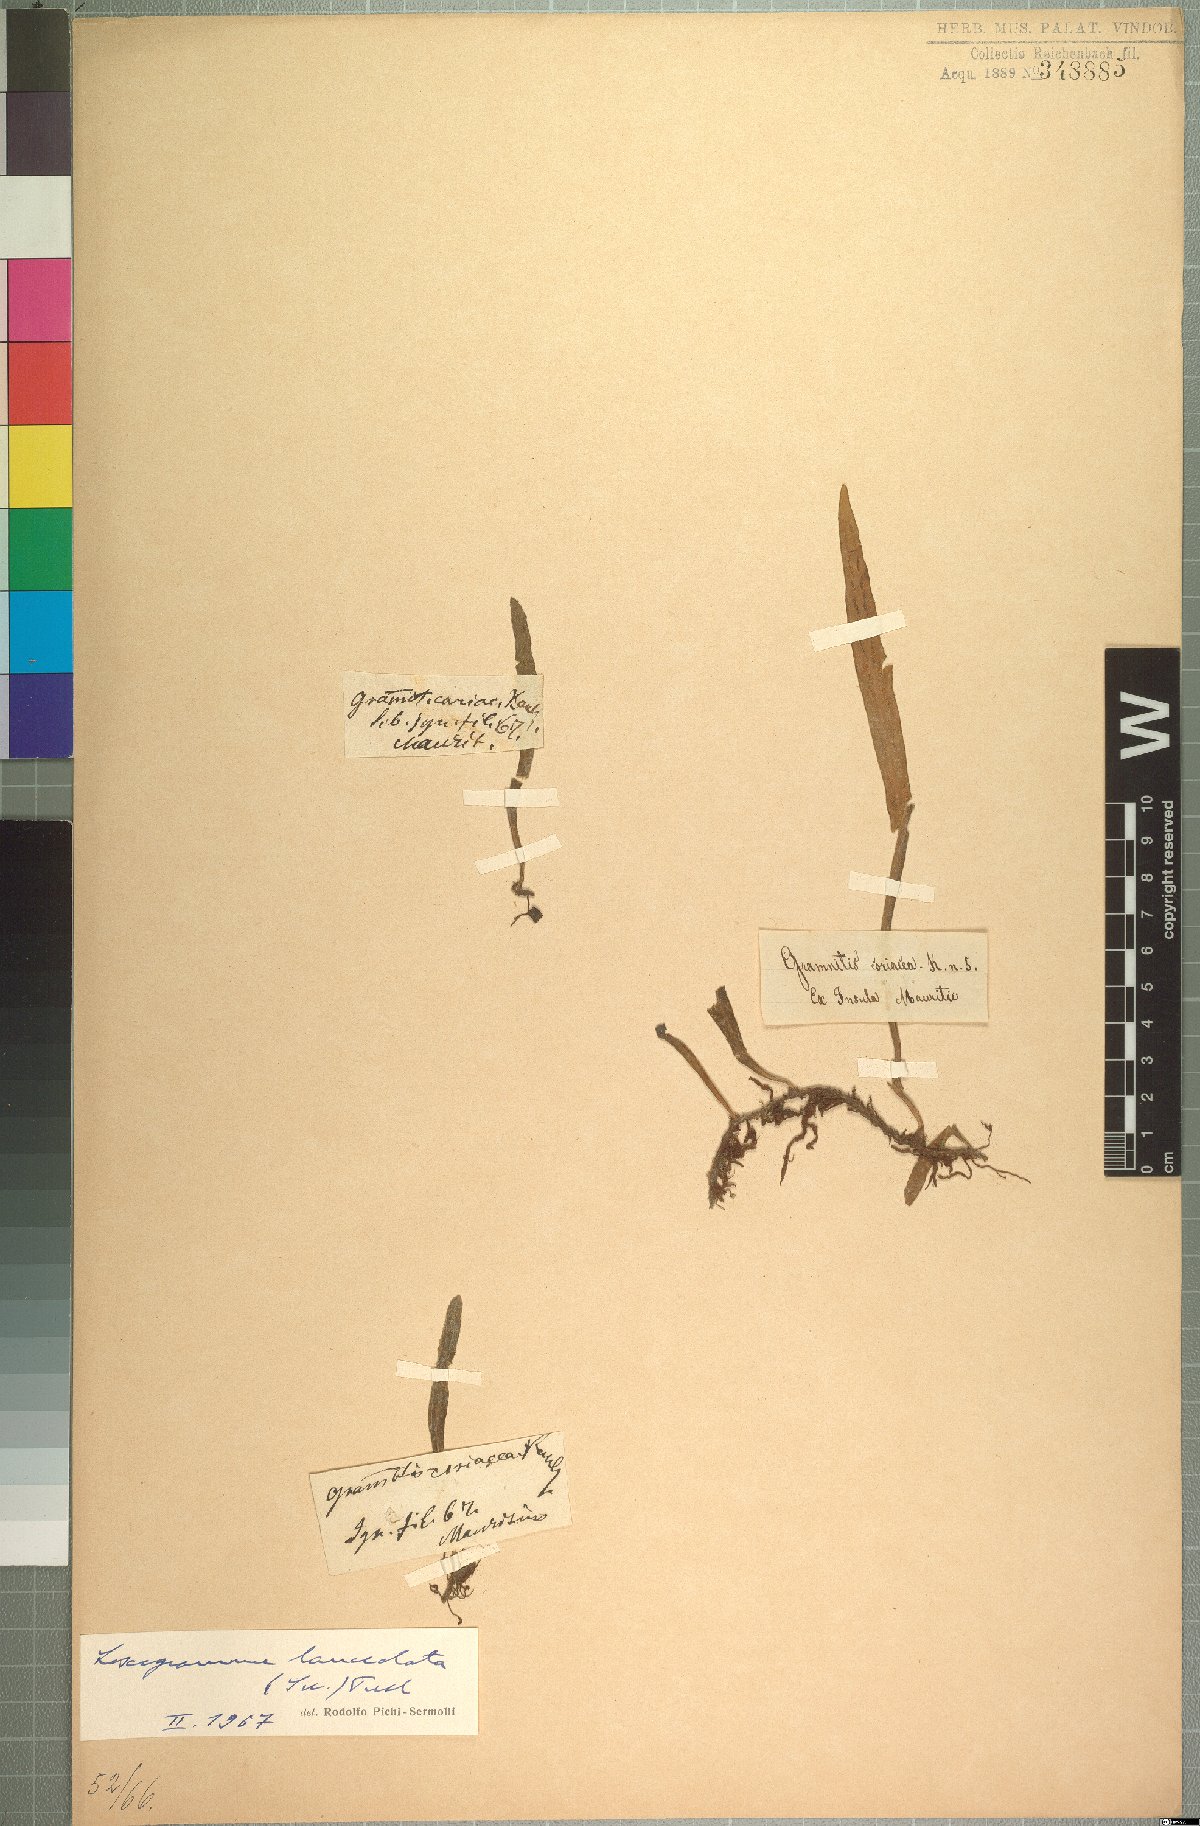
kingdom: Plantae
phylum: Tracheophyta
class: Polypodiopsida
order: Polypodiales
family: Polypodiaceae
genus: Loxogramme
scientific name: Loxogramme lanceolata
